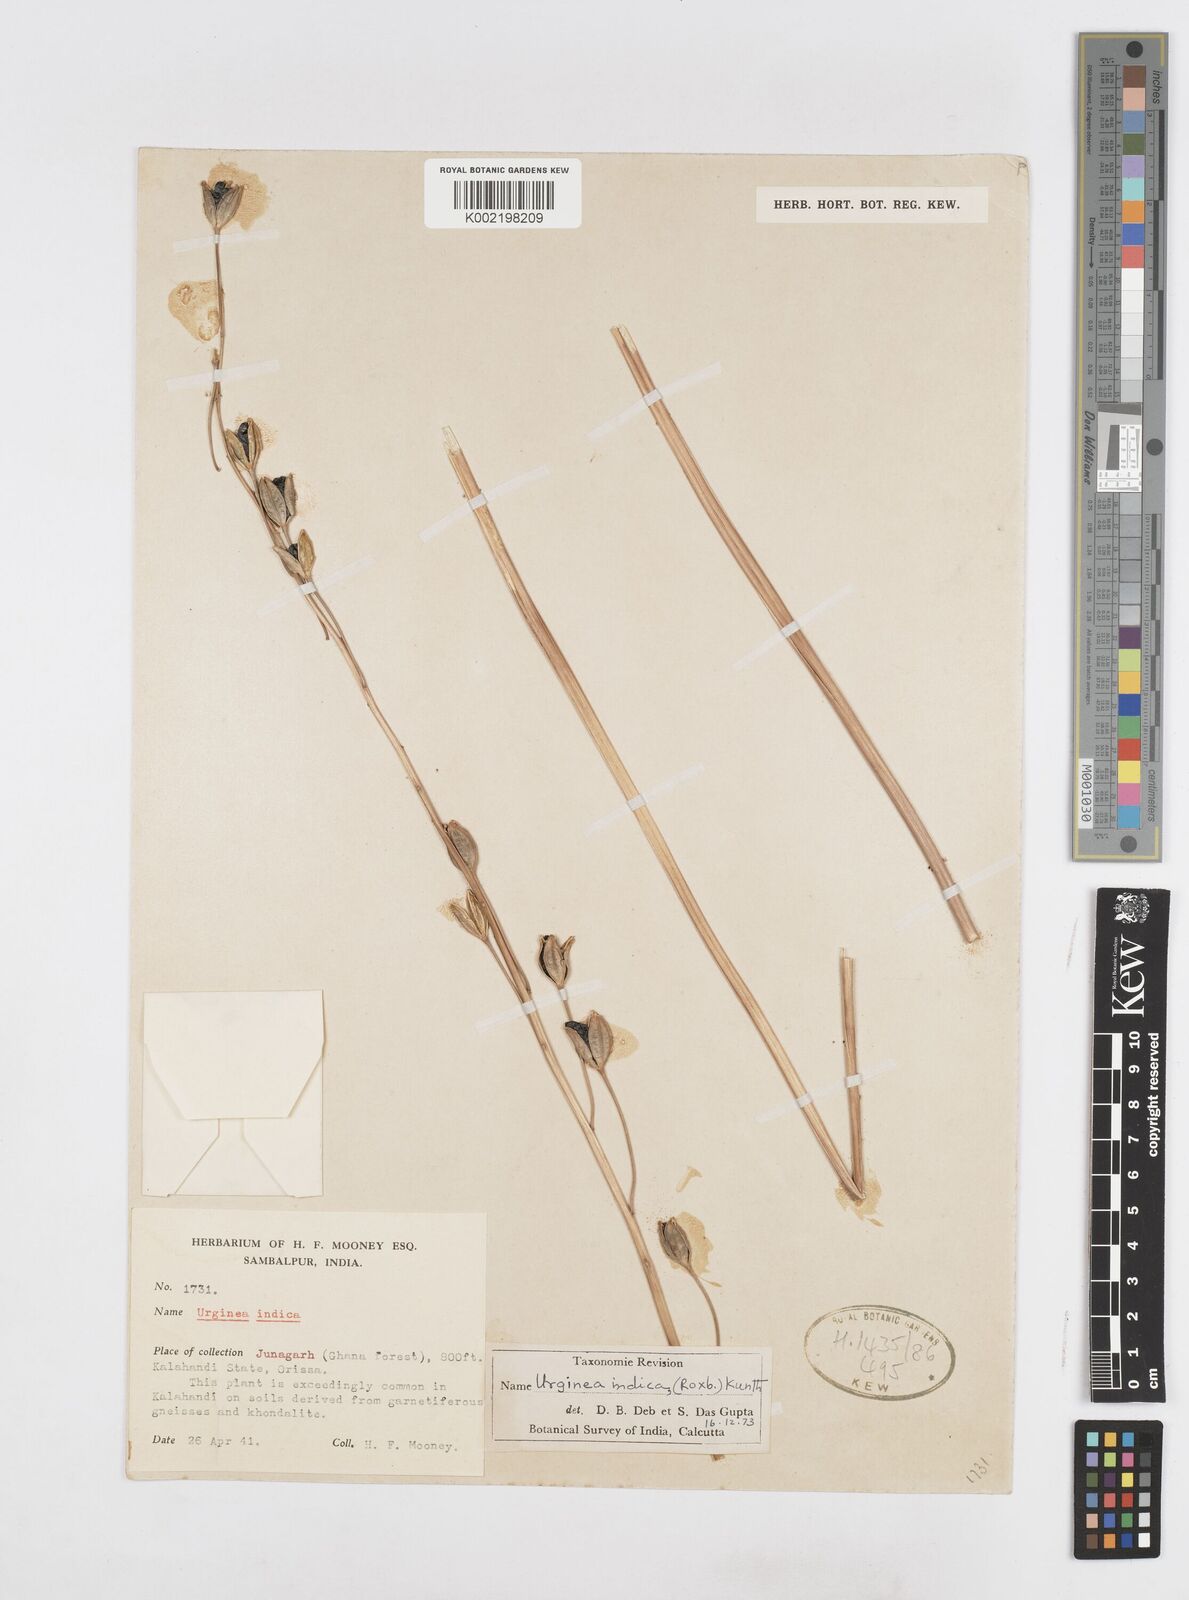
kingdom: Plantae
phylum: Tracheophyta
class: Liliopsida
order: Asparagales
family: Asparagaceae
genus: Drimia
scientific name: Drimia indica
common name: Indian-squill
